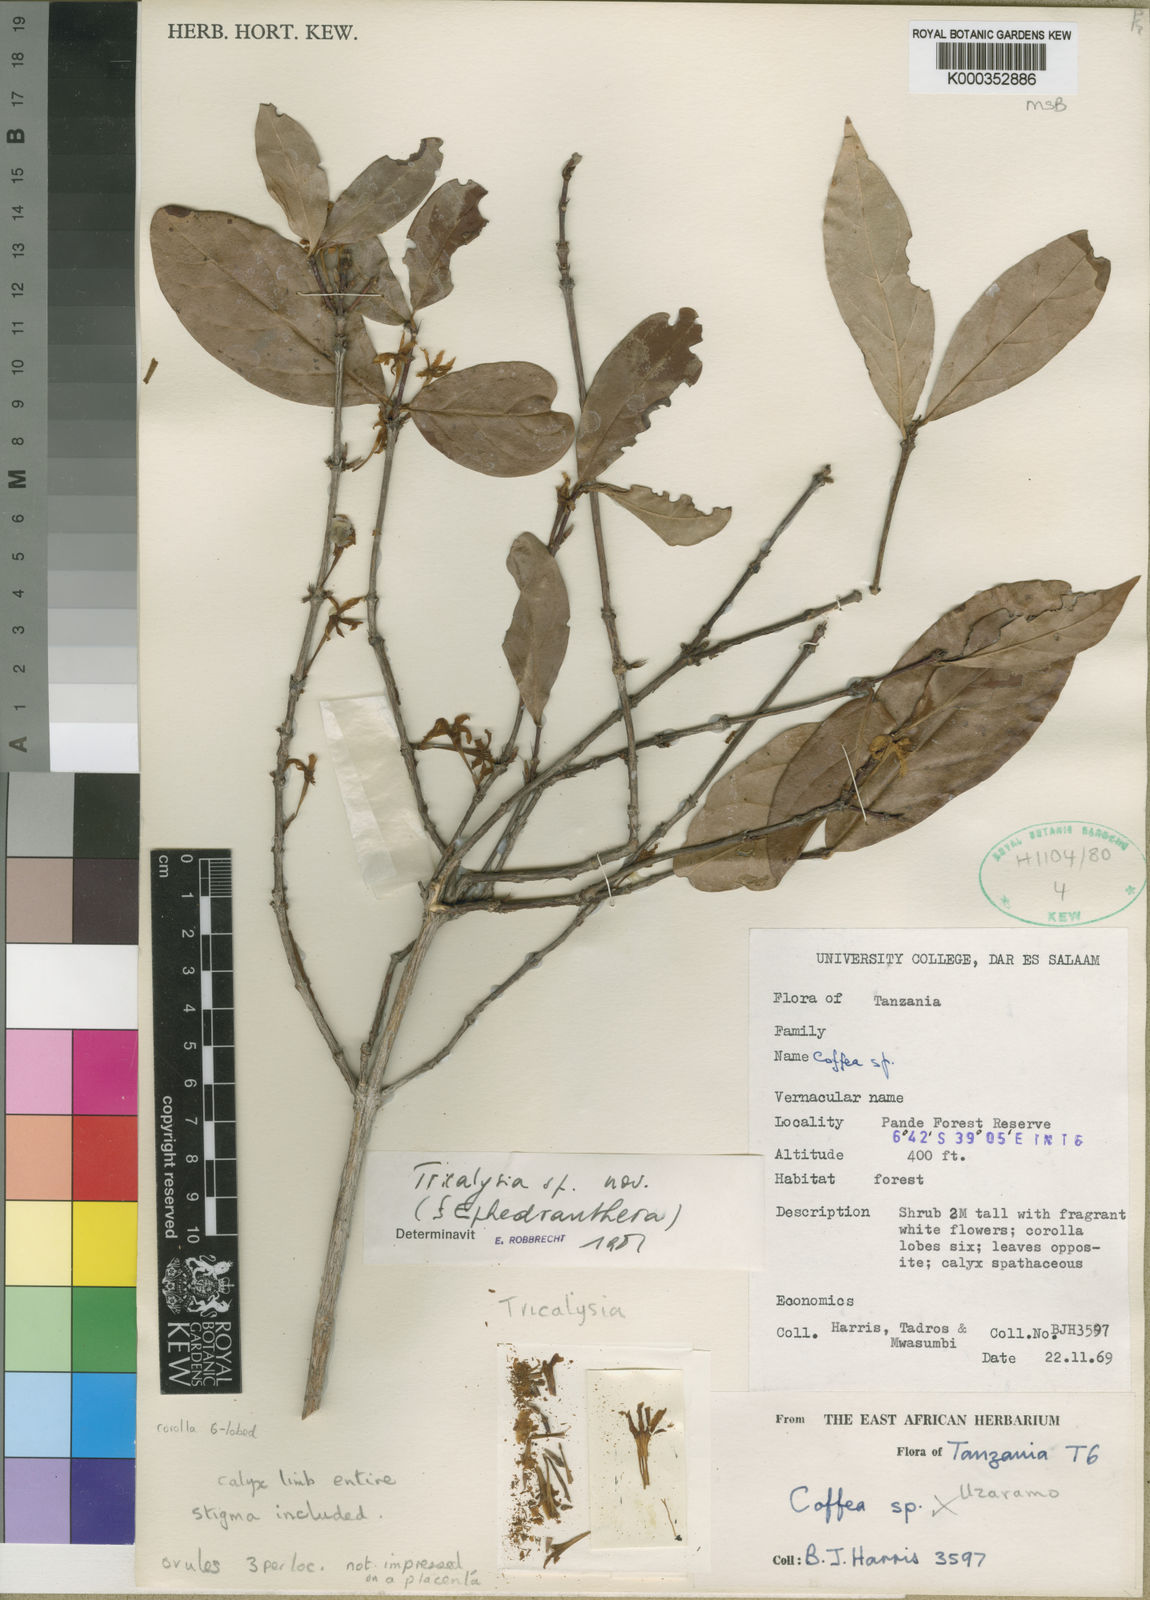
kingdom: Plantae
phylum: Tracheophyta
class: Magnoliopsida
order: Gentianales
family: Rubiaceae
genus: Tricalysia
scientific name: Tricalysia bridsoniana
